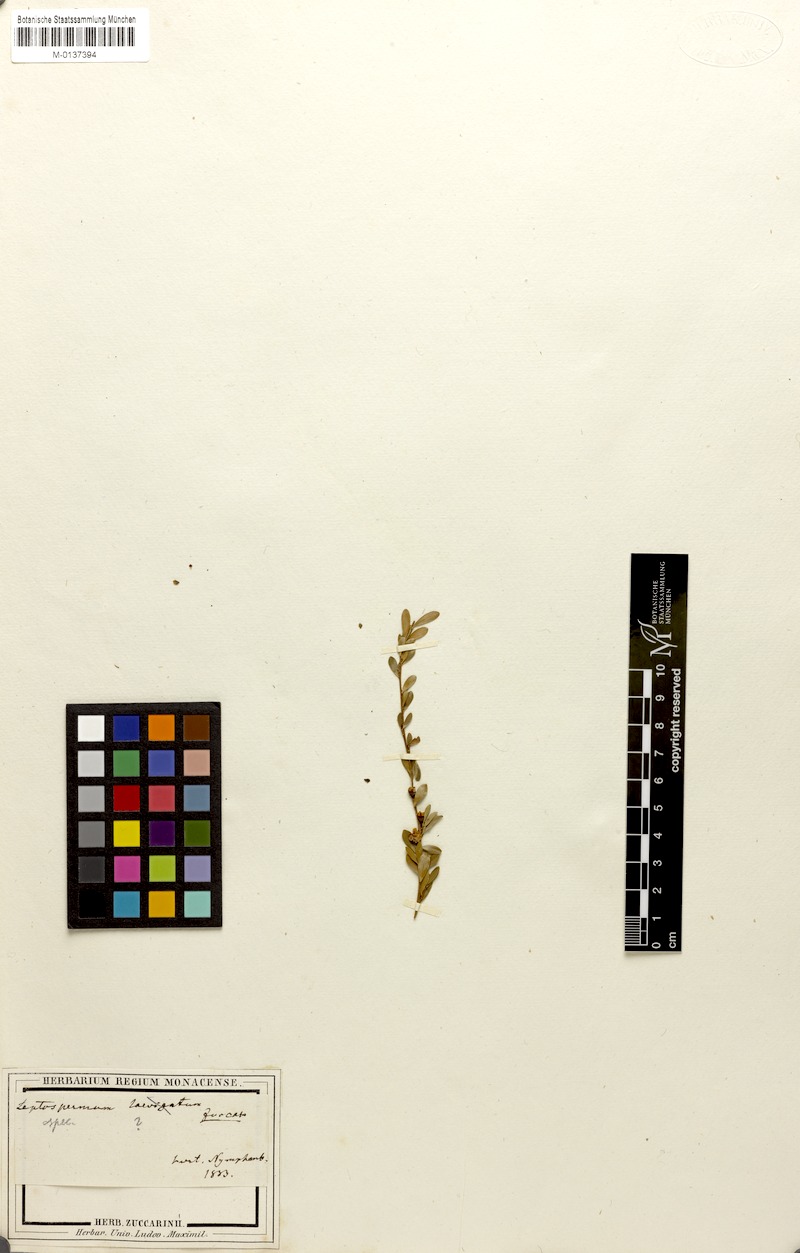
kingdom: Plantae
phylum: Tracheophyta
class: Magnoliopsida
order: Myrtales
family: Myrtaceae
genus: Leptospermum
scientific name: Leptospermum
